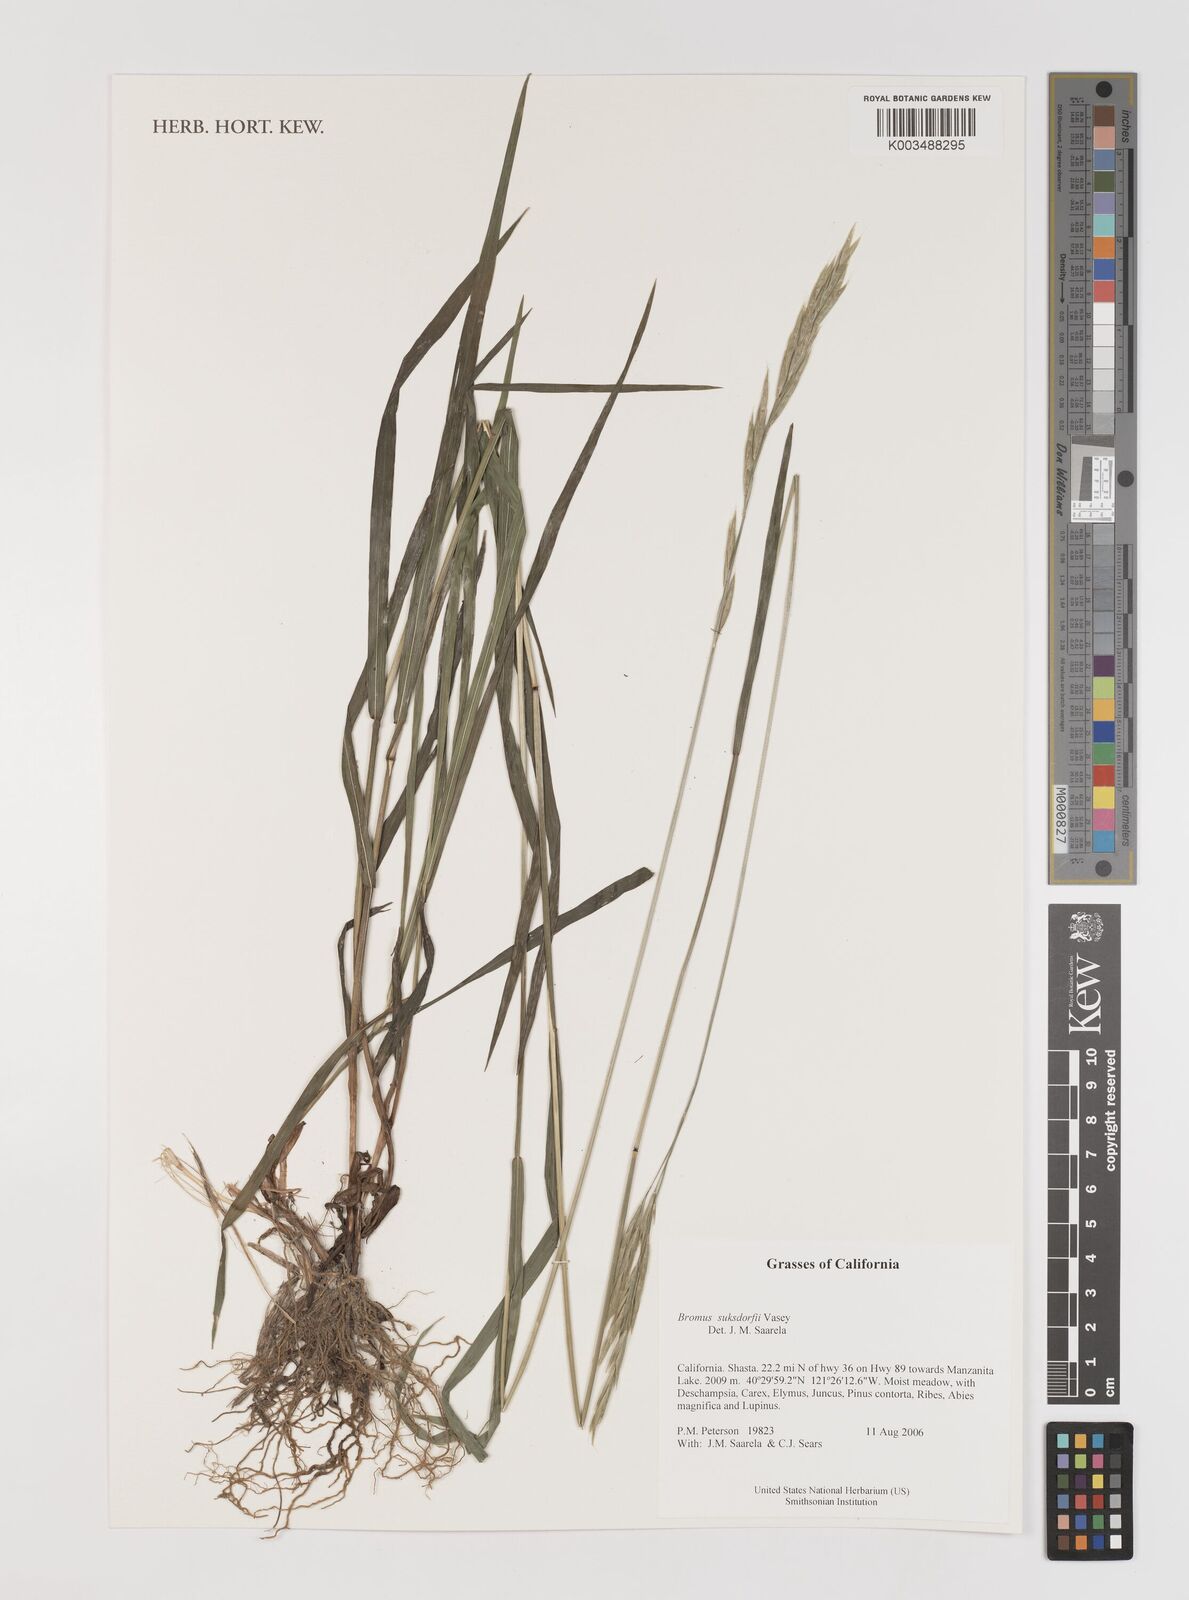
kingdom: Plantae
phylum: Tracheophyta
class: Liliopsida
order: Poales
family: Poaceae
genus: Bromus
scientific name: Bromus suksdorfii
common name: Suksdorf's brome
